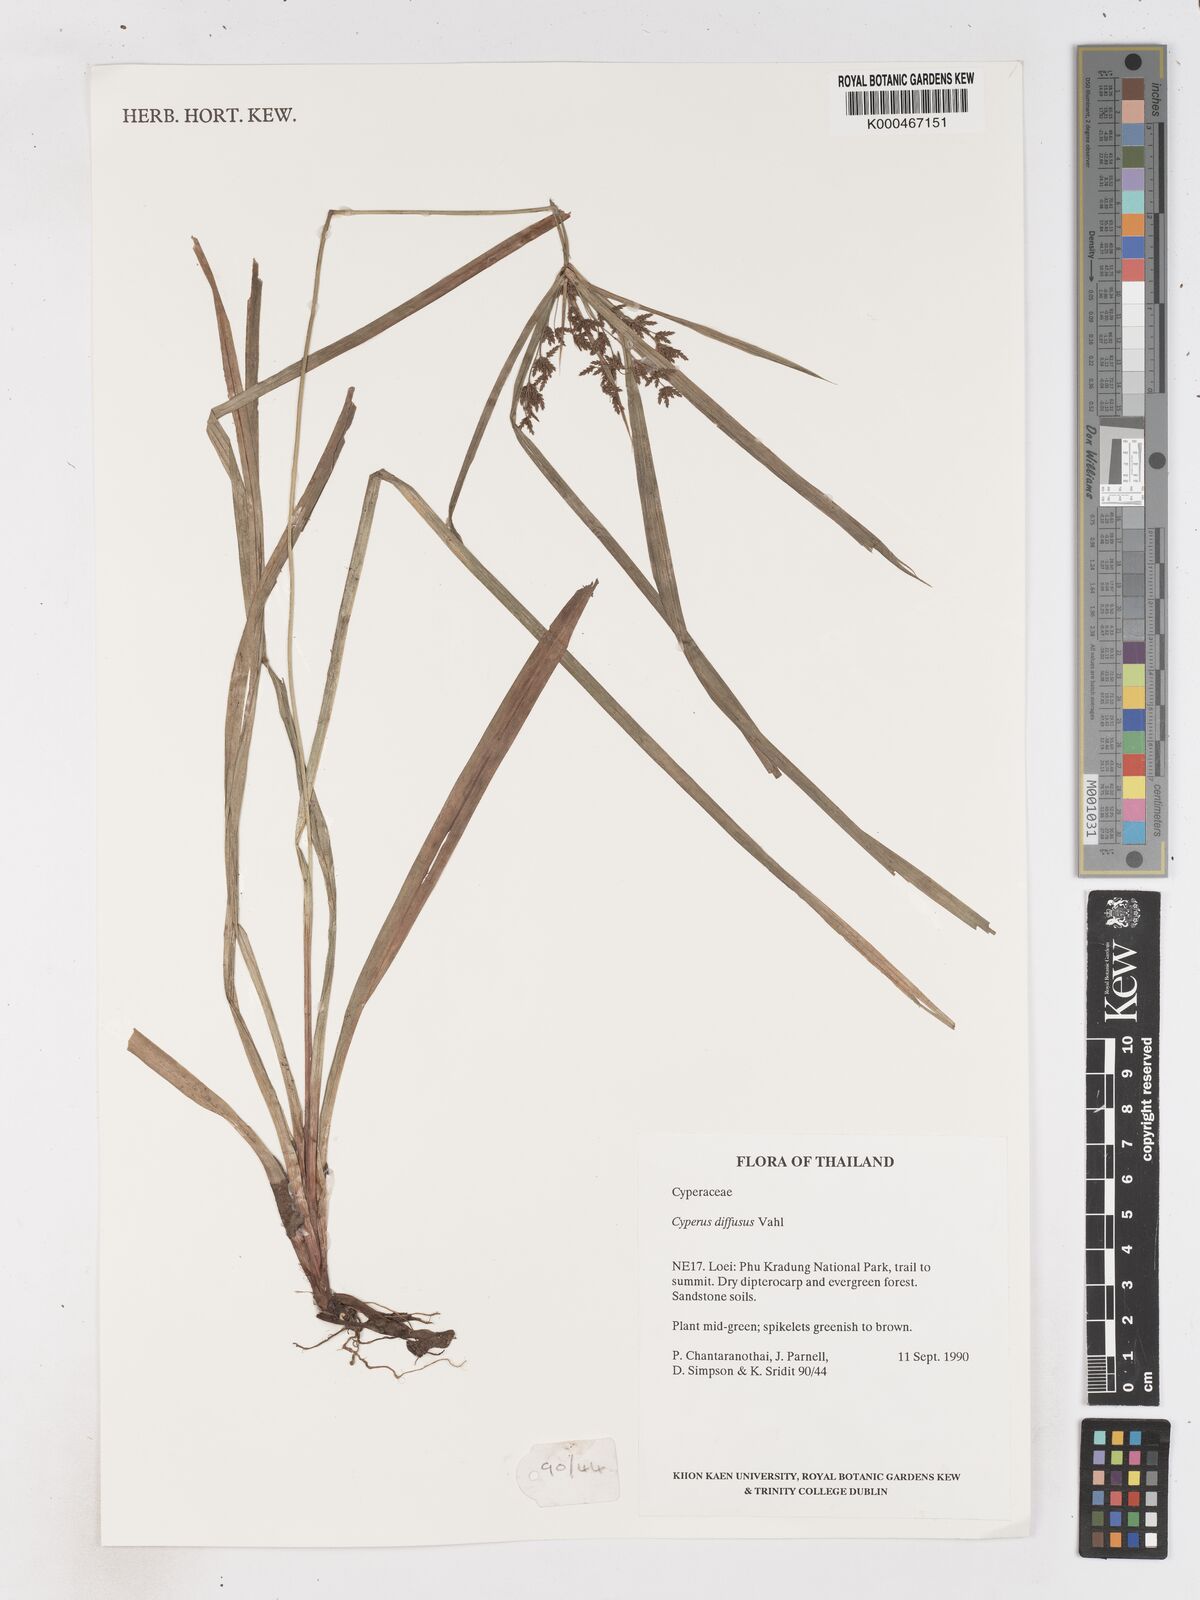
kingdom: Plantae
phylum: Tracheophyta
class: Liliopsida
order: Poales
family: Cyperaceae
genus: Cyperus
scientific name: Cyperus diffusus
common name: Dwarf umbrella grass
